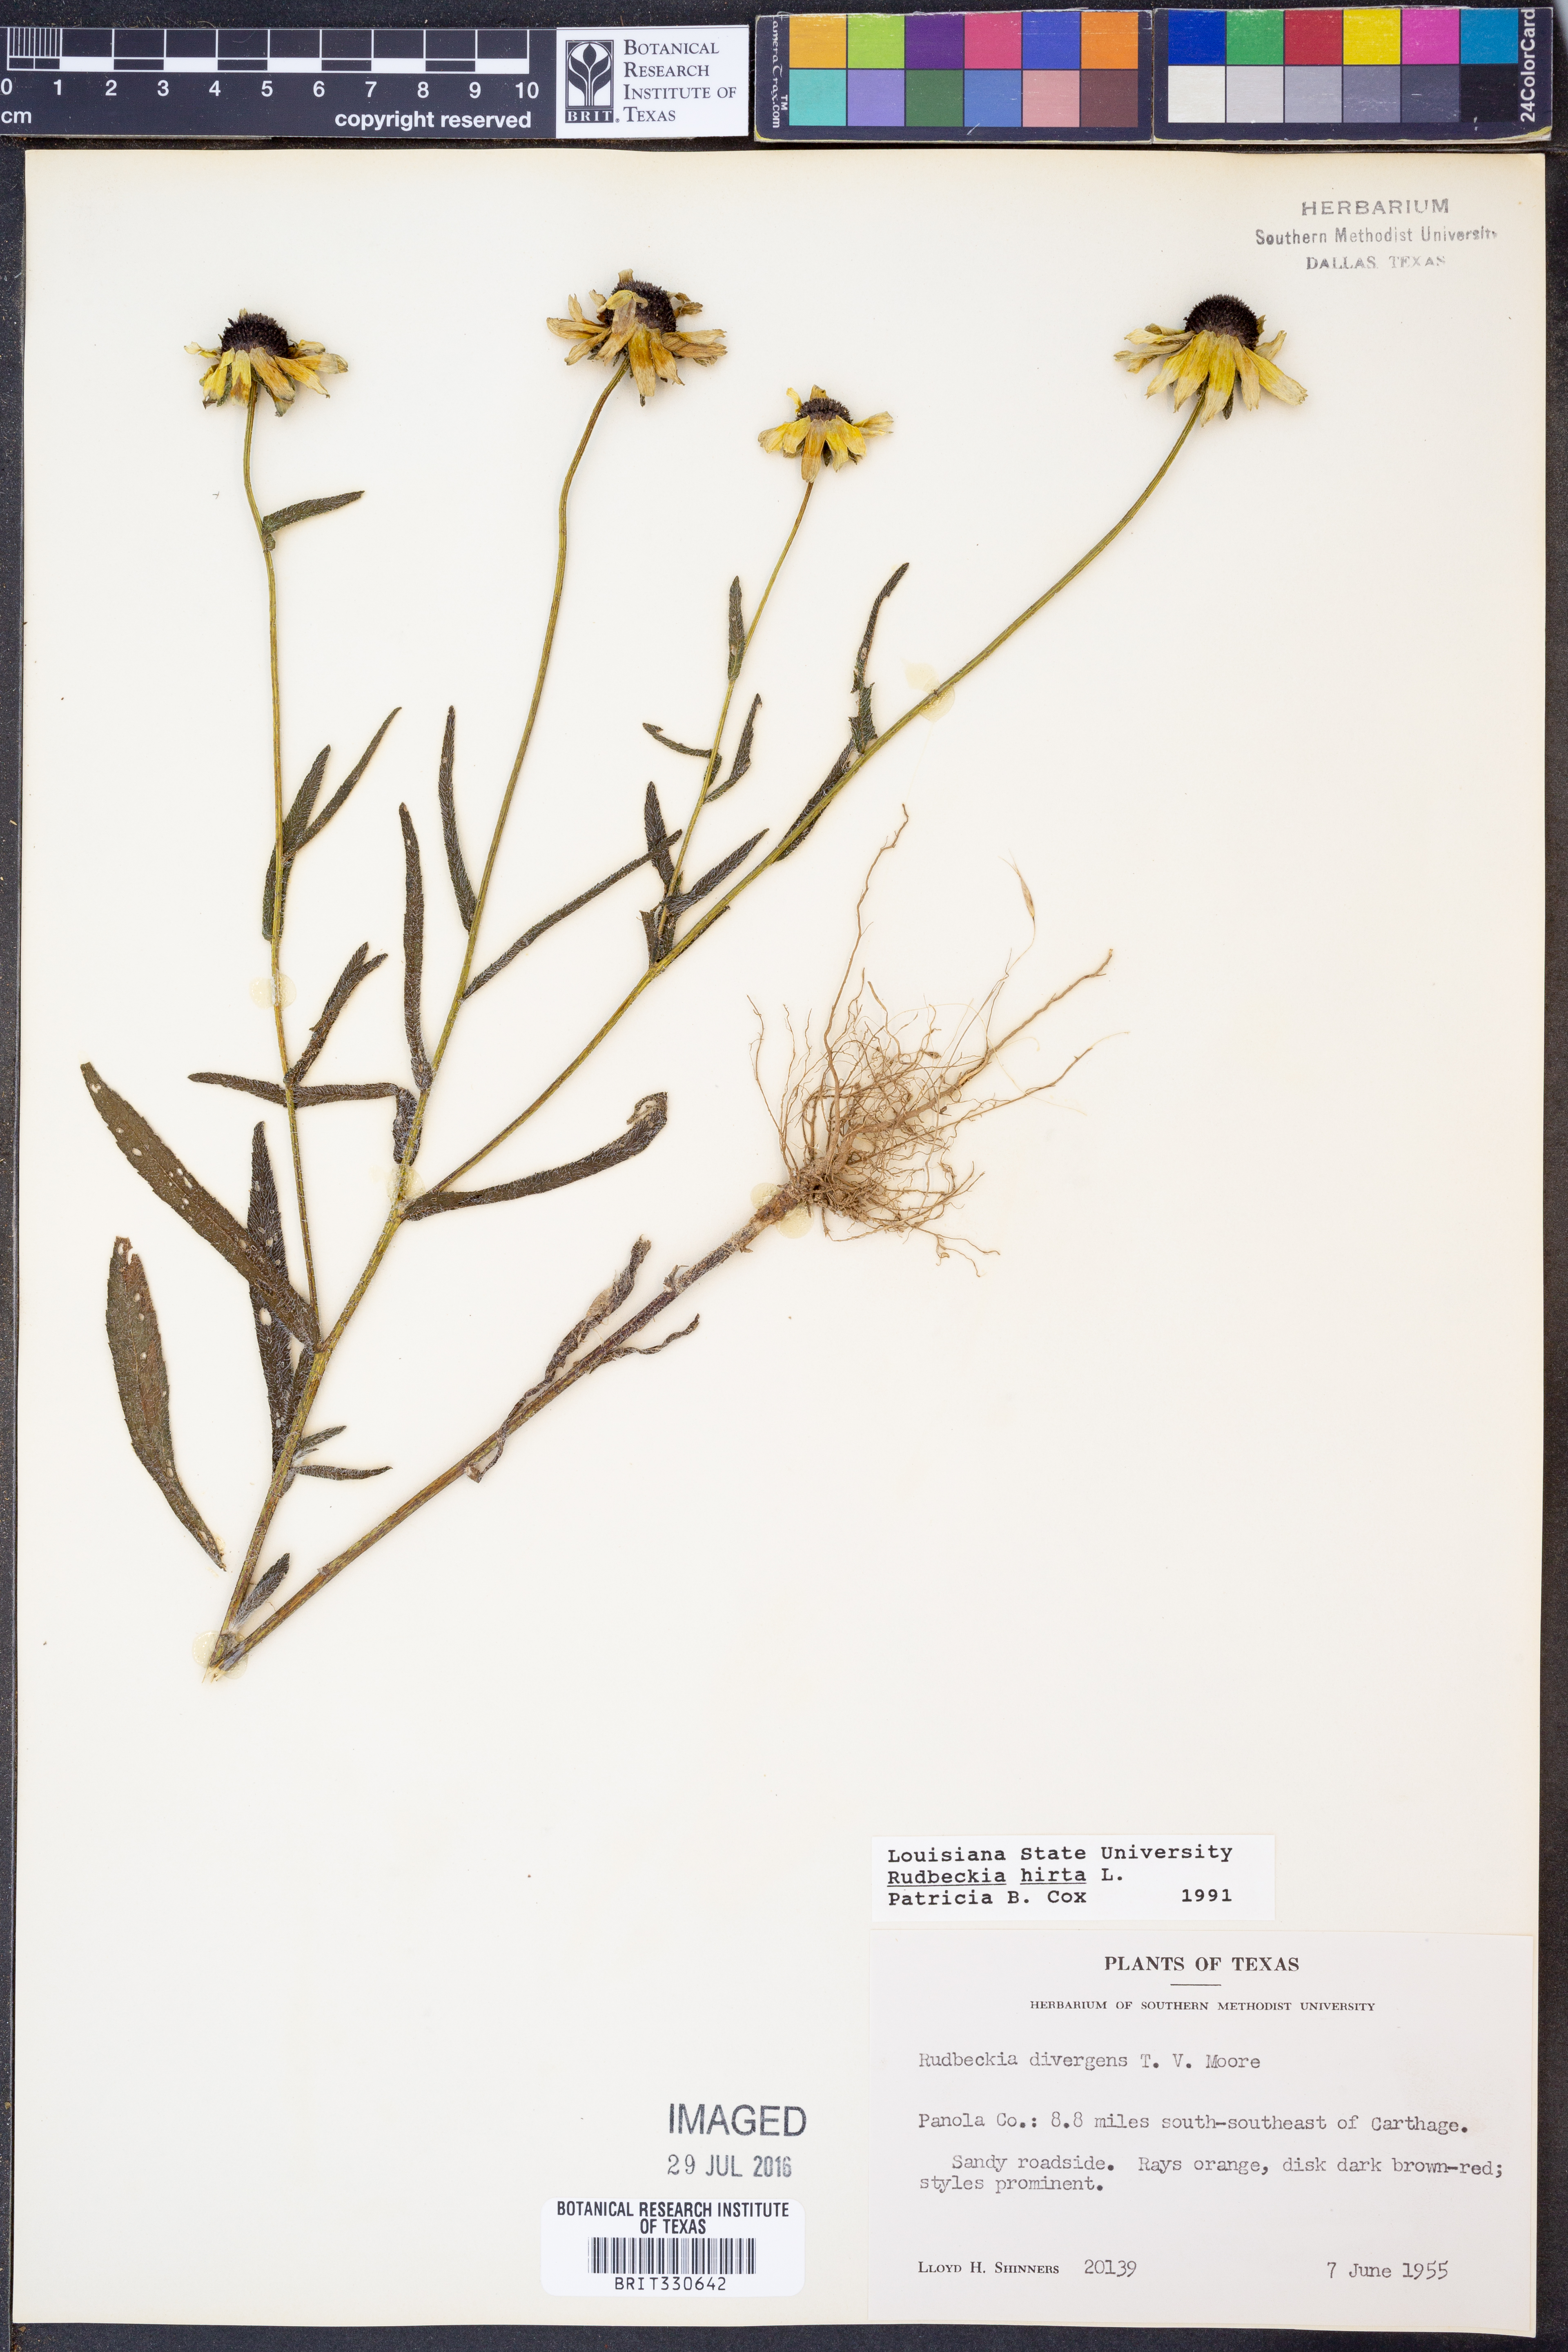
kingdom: Plantae
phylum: Tracheophyta
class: Magnoliopsida
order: Asterales
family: Asteraceae
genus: Rudbeckia
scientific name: Rudbeckia hirta
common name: Black-eyed-susan
